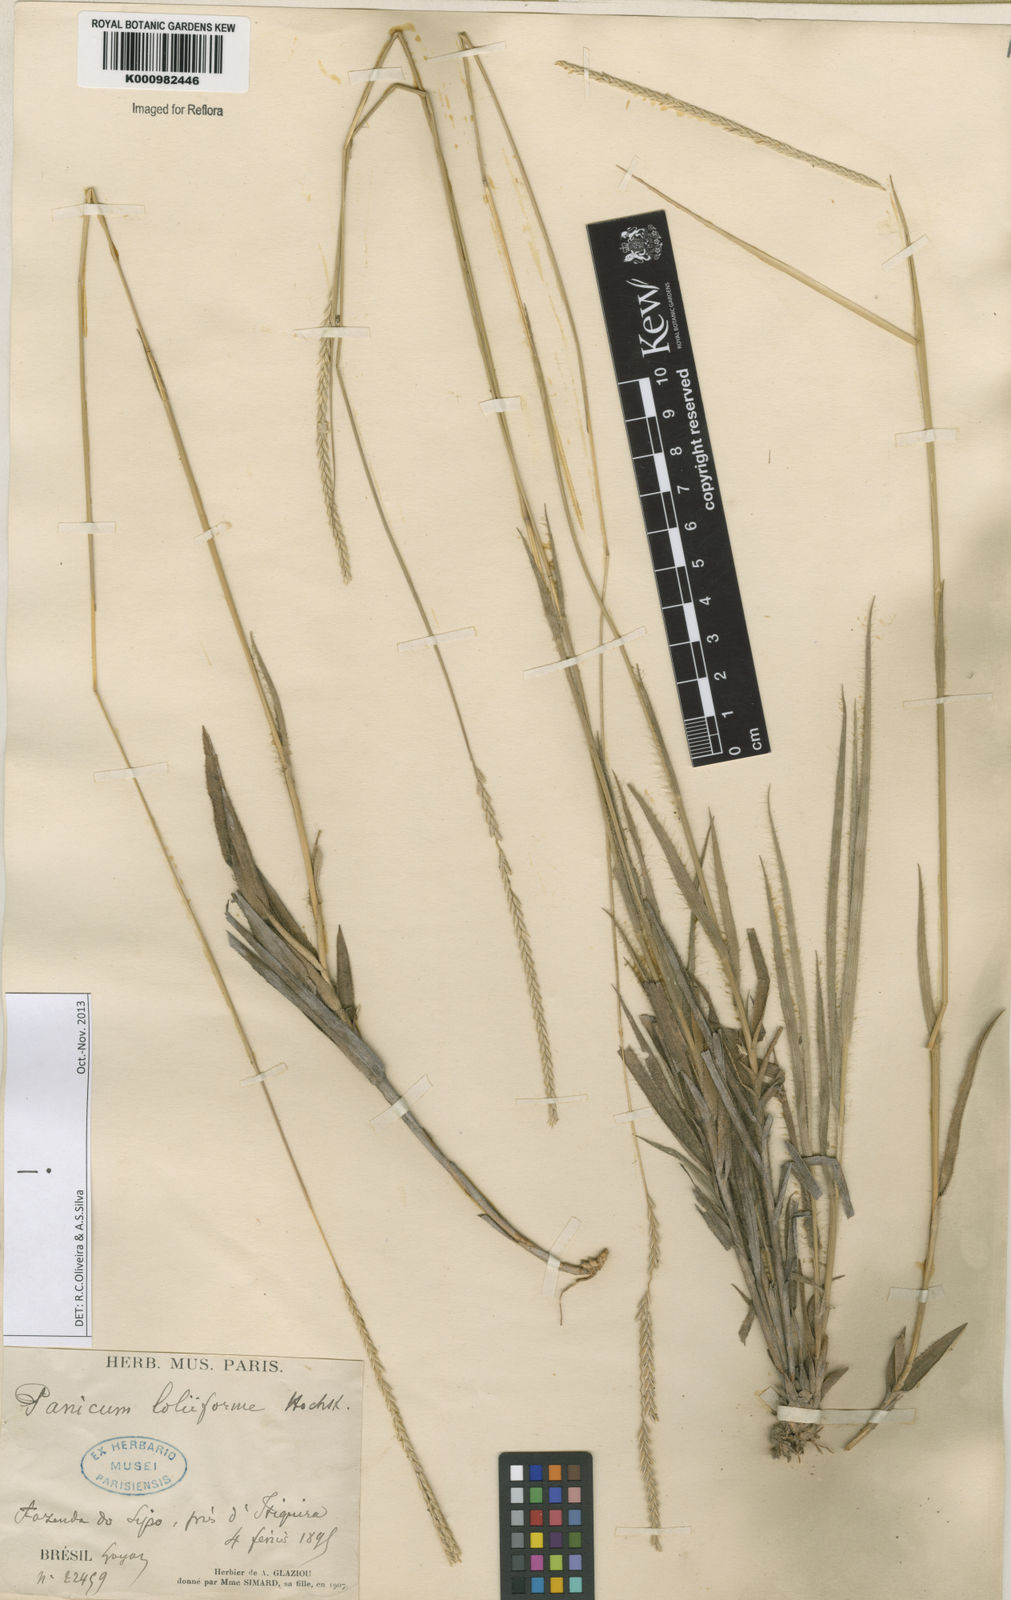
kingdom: Plantae
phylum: Tracheophyta
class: Liliopsida
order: Poales
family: Poaceae
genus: Mesosetum
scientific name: Mesosetum
